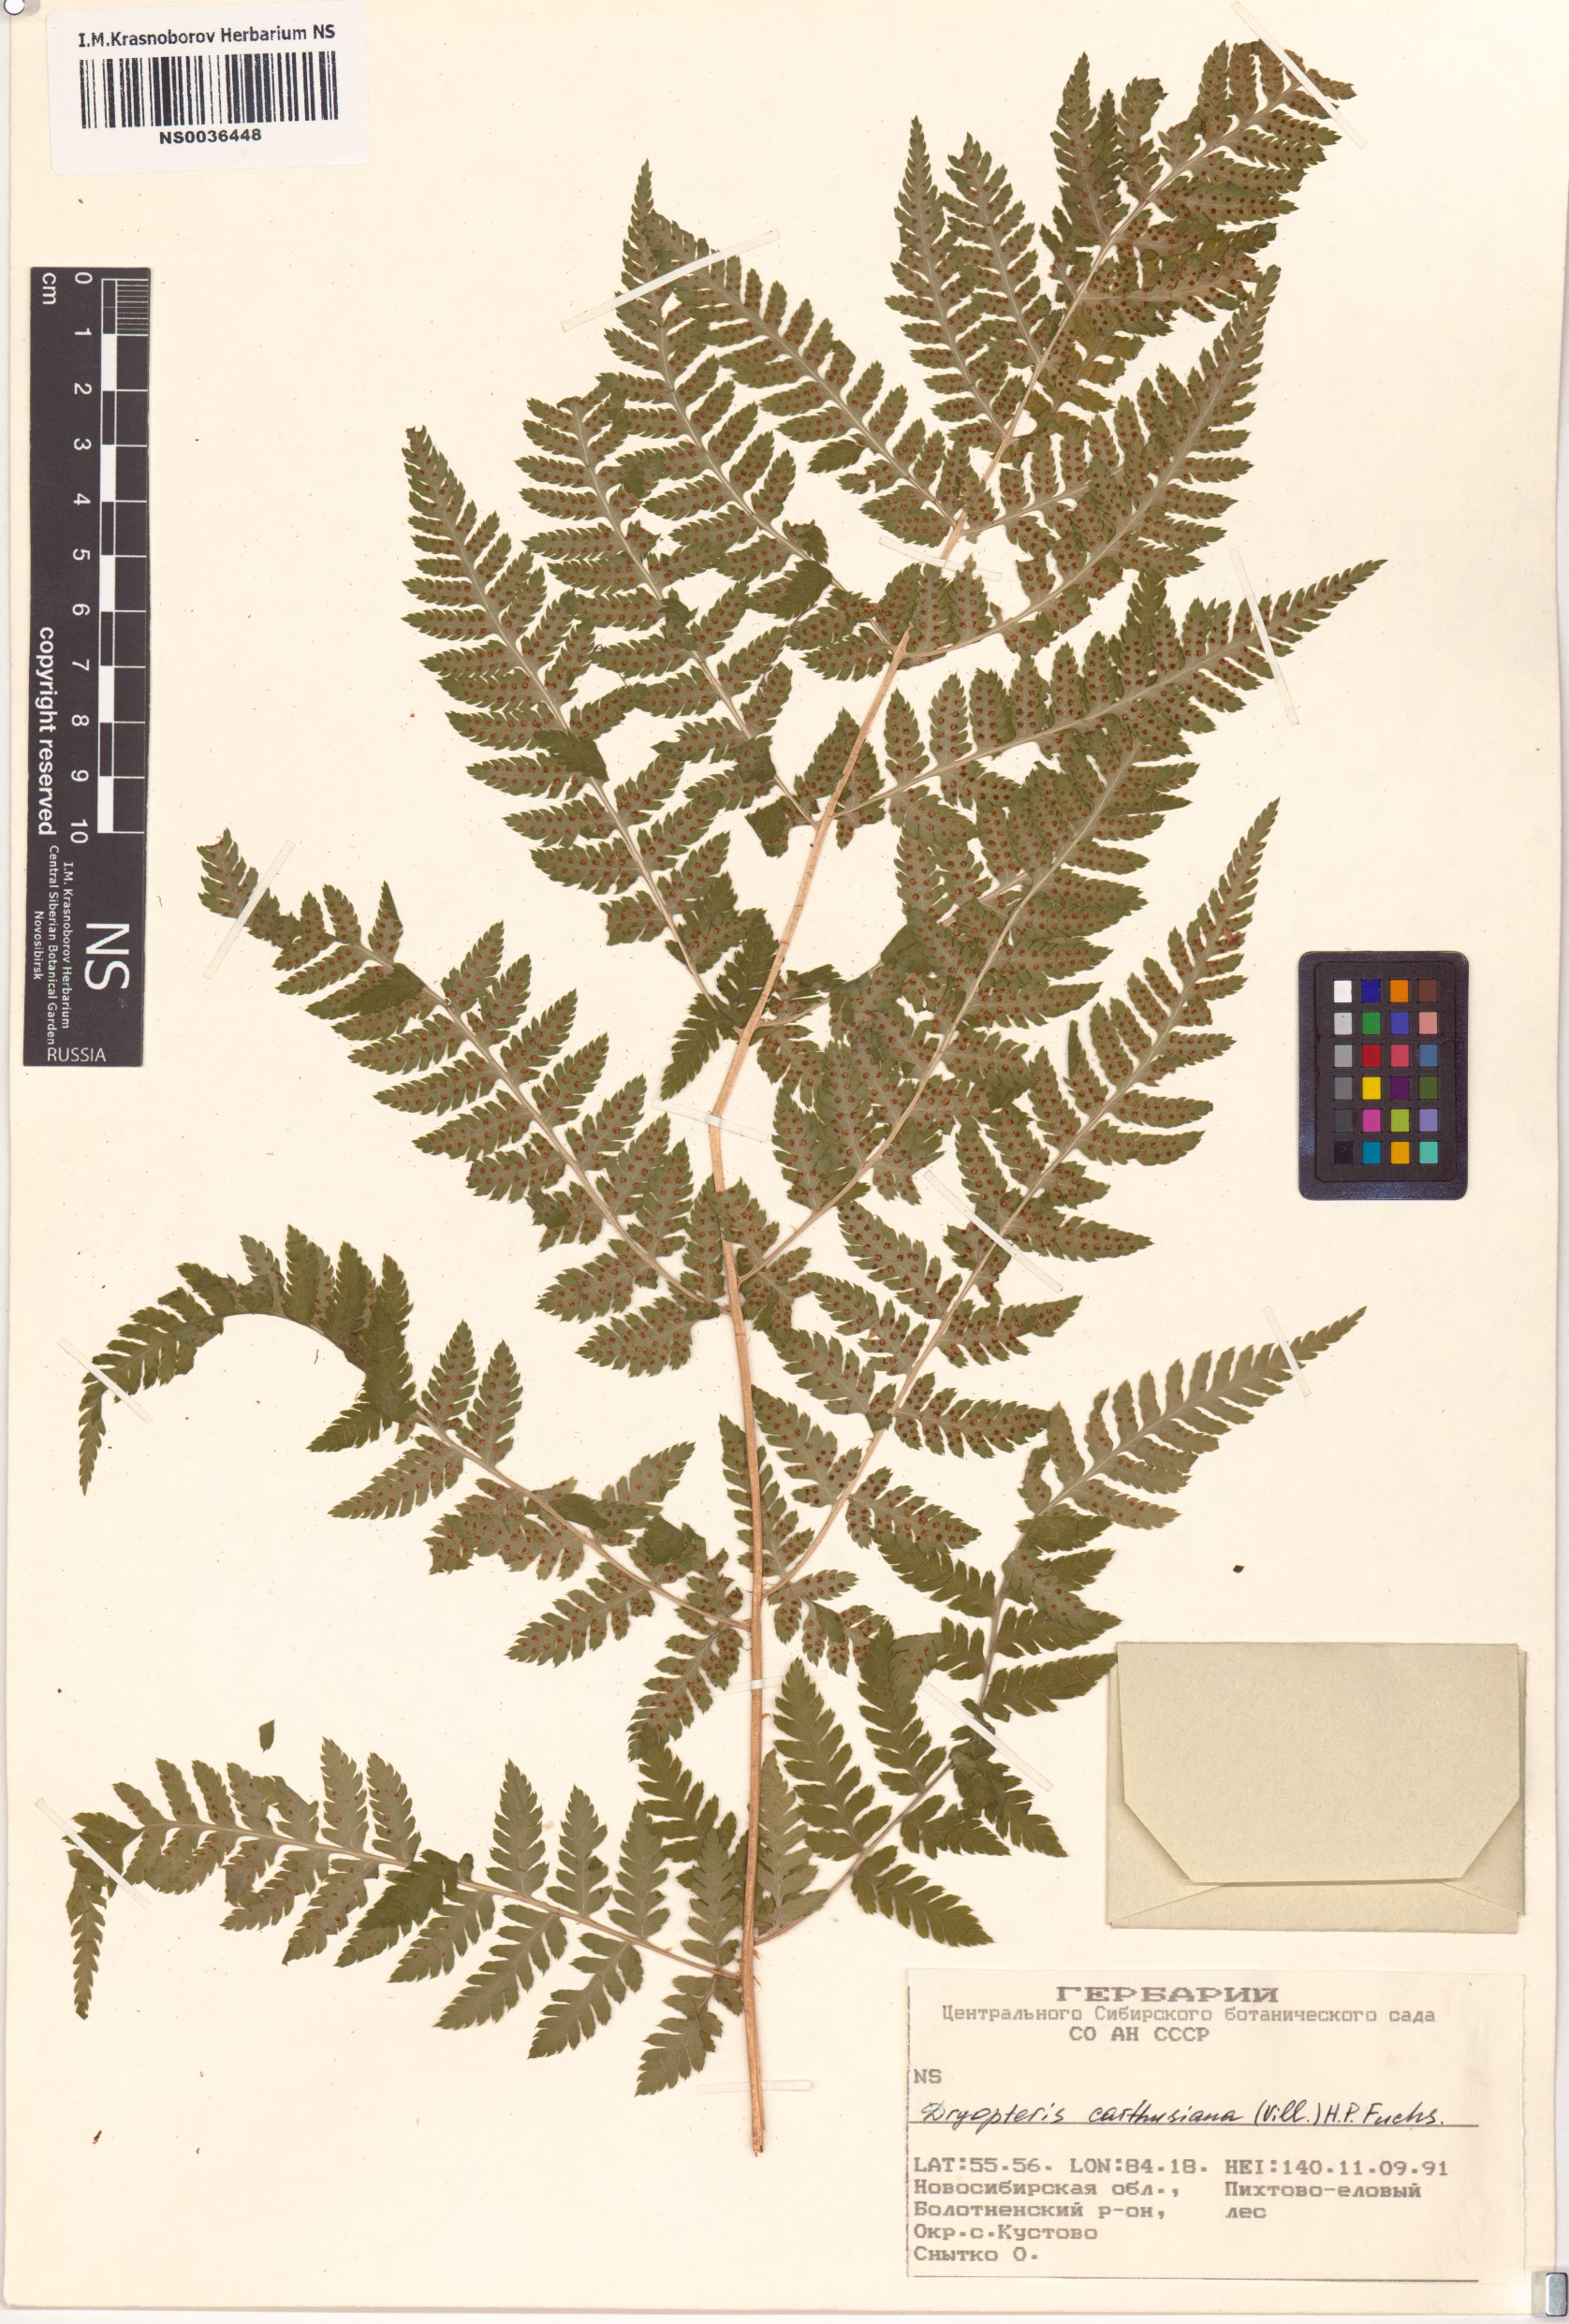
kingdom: Plantae
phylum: Tracheophyta
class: Polypodiopsida
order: Polypodiales
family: Dryopteridaceae
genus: Dryopteris
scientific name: Dryopteris carthusiana
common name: Narrow buckler-fern
